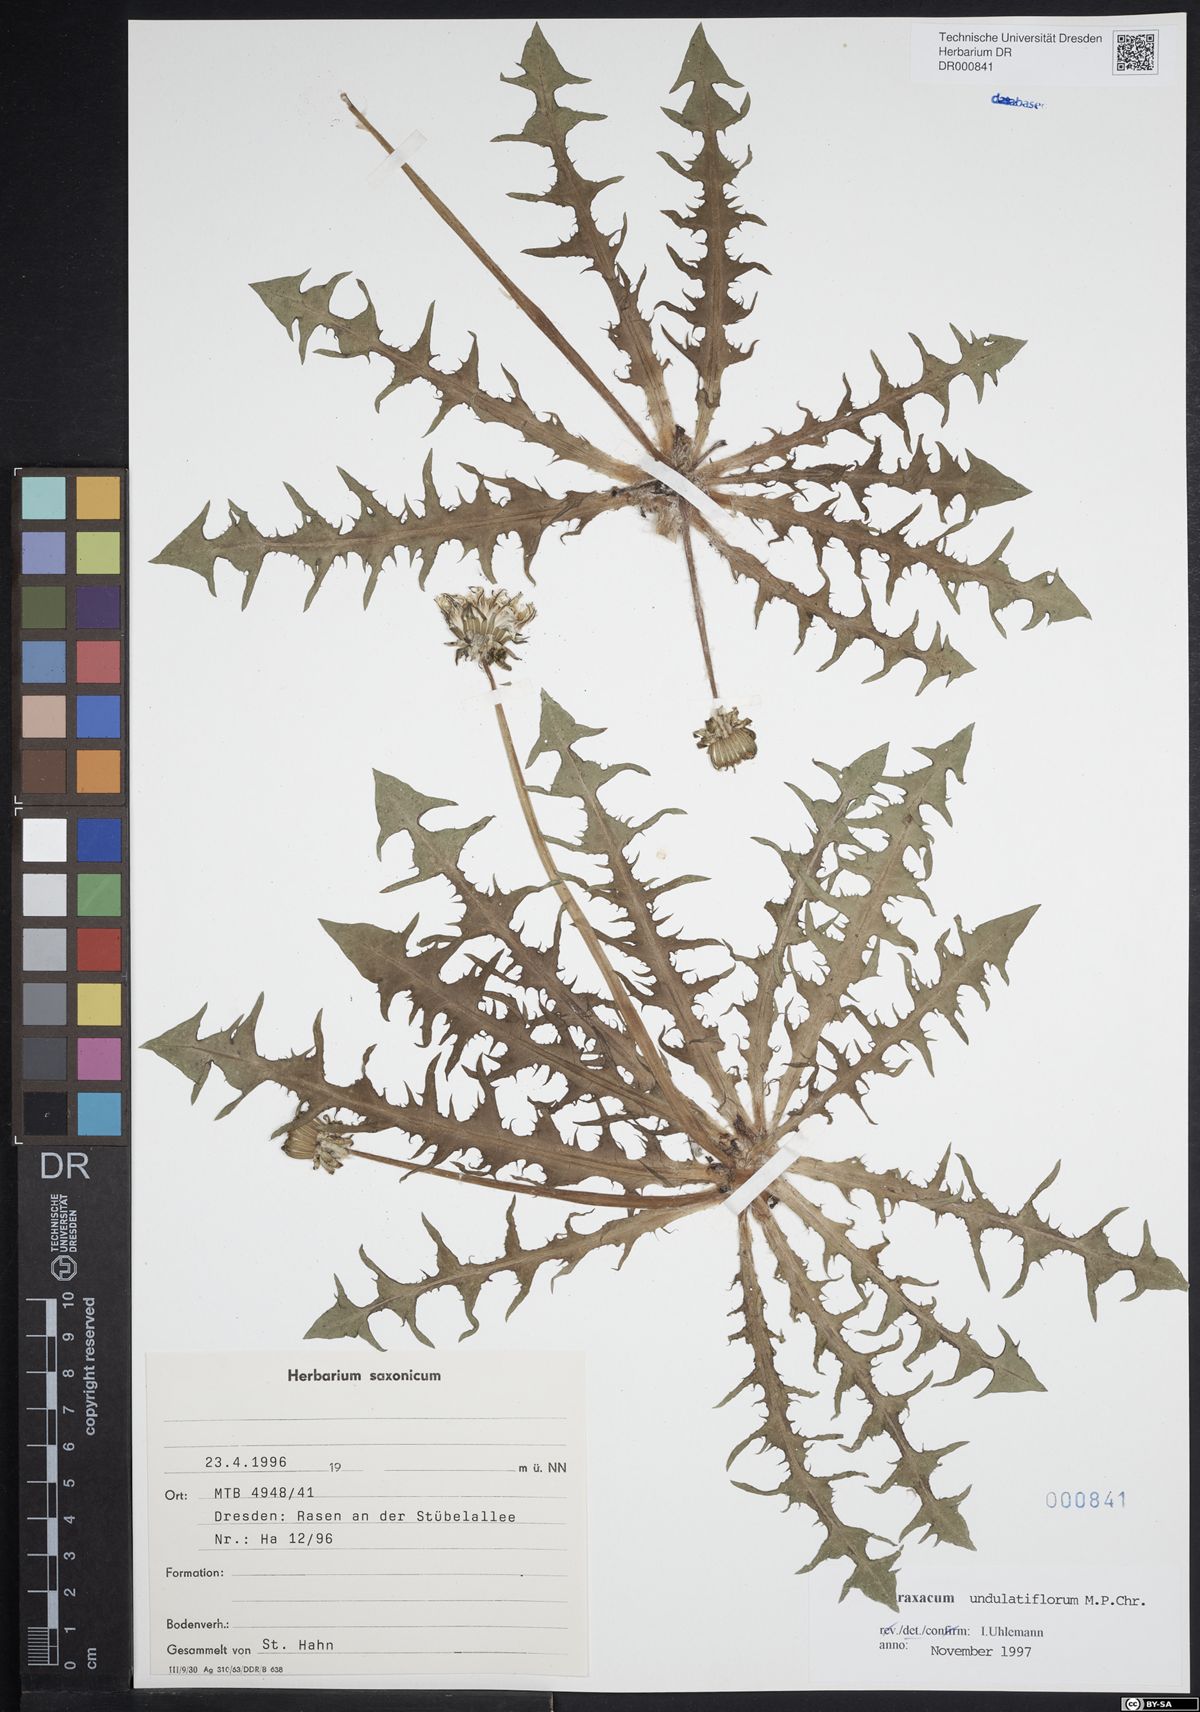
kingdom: Plantae
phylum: Tracheophyta
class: Magnoliopsida
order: Asterales
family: Asteraceae
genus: Taraxacum
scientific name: Taraxacum undulatiflorum
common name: Dull-leaved dandelion
